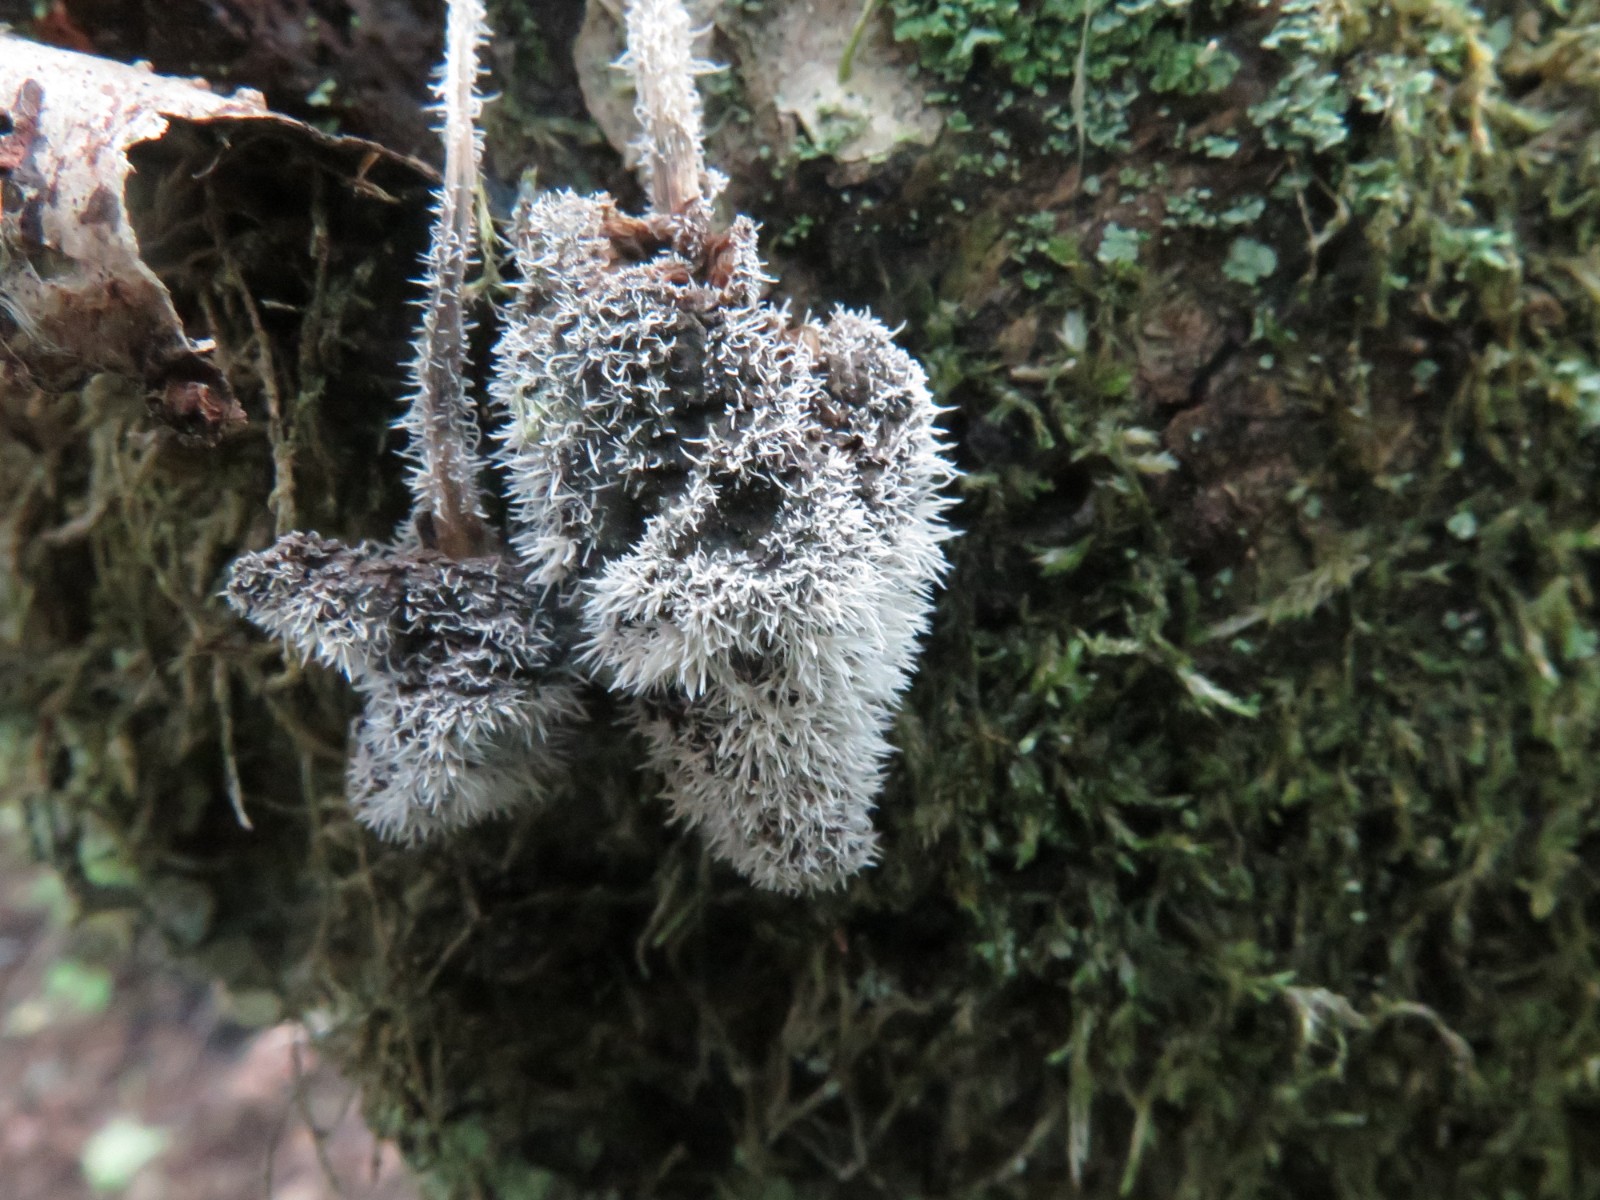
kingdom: Fungi
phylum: Ascomycota
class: Sordariomycetes
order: Hypocreales
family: Tilachlidiaceae
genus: Tilachlidium
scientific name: Tilachlidium brachiatum
